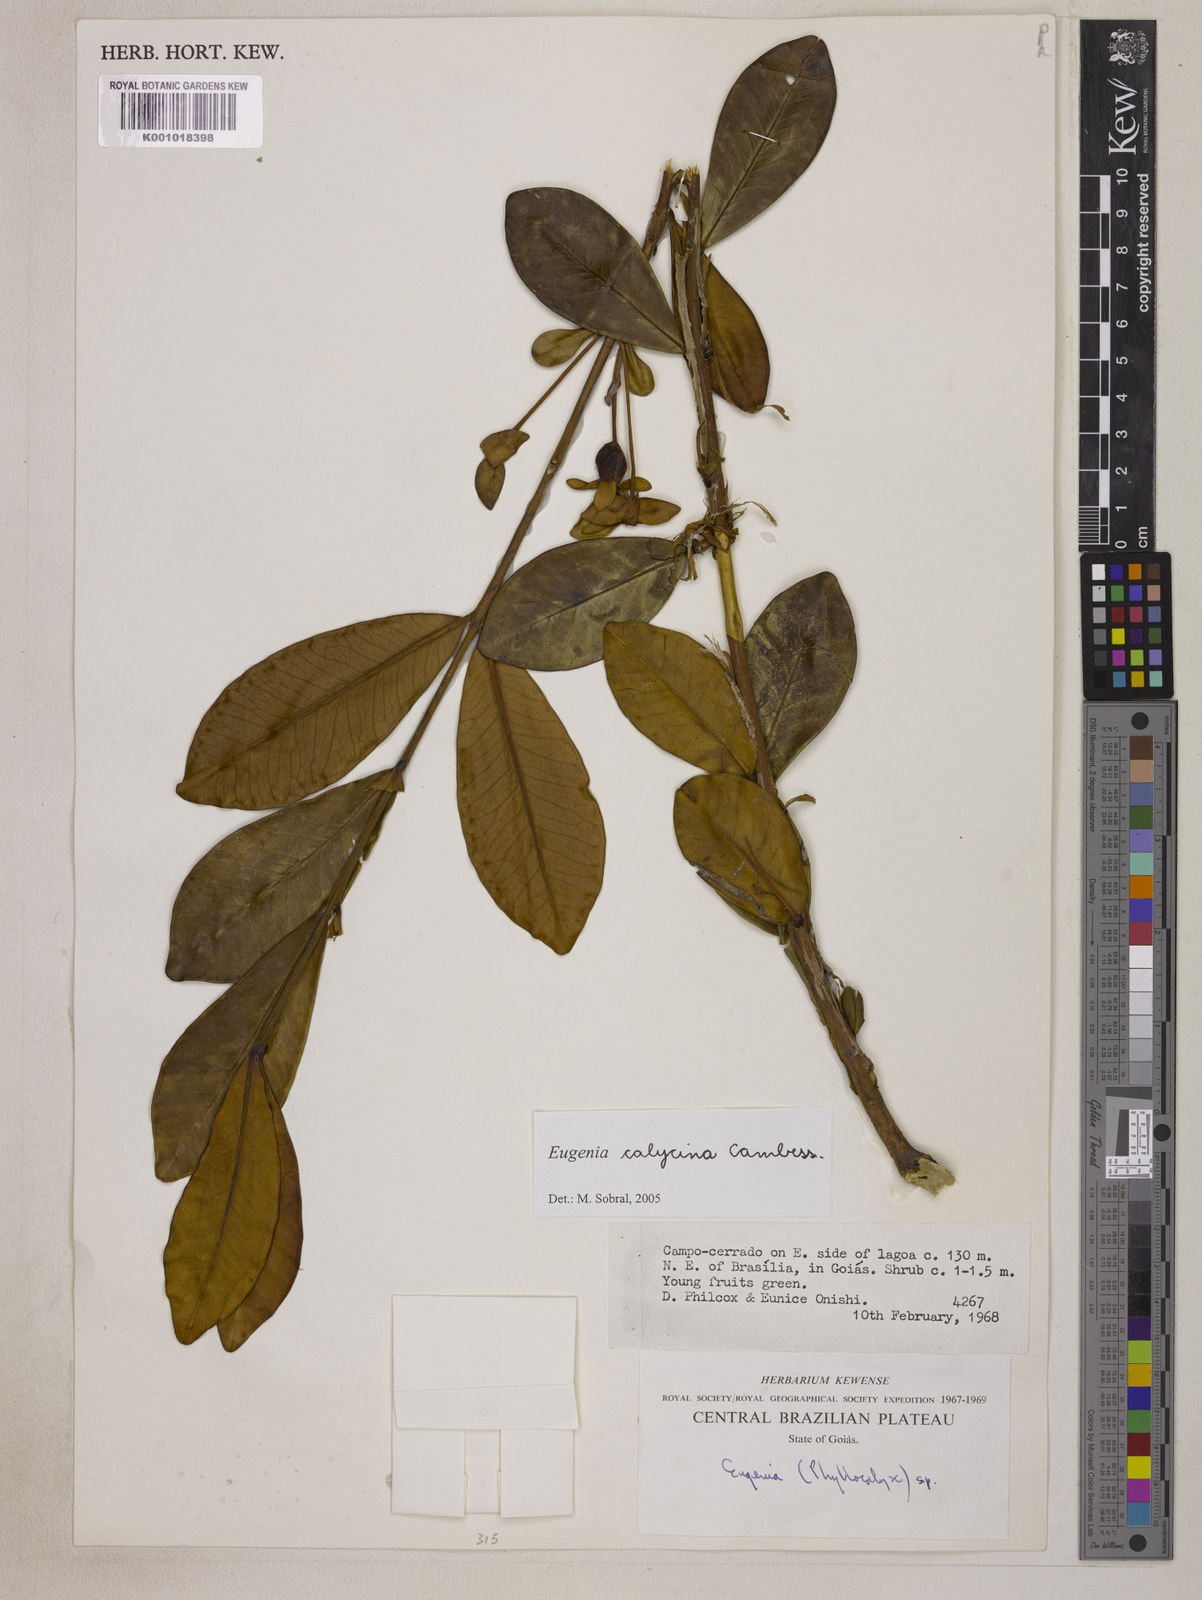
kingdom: Plantae
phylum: Tracheophyta
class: Magnoliopsida
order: Myrtales
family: Myrtaceae
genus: Eugenia
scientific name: Eugenia calycina
